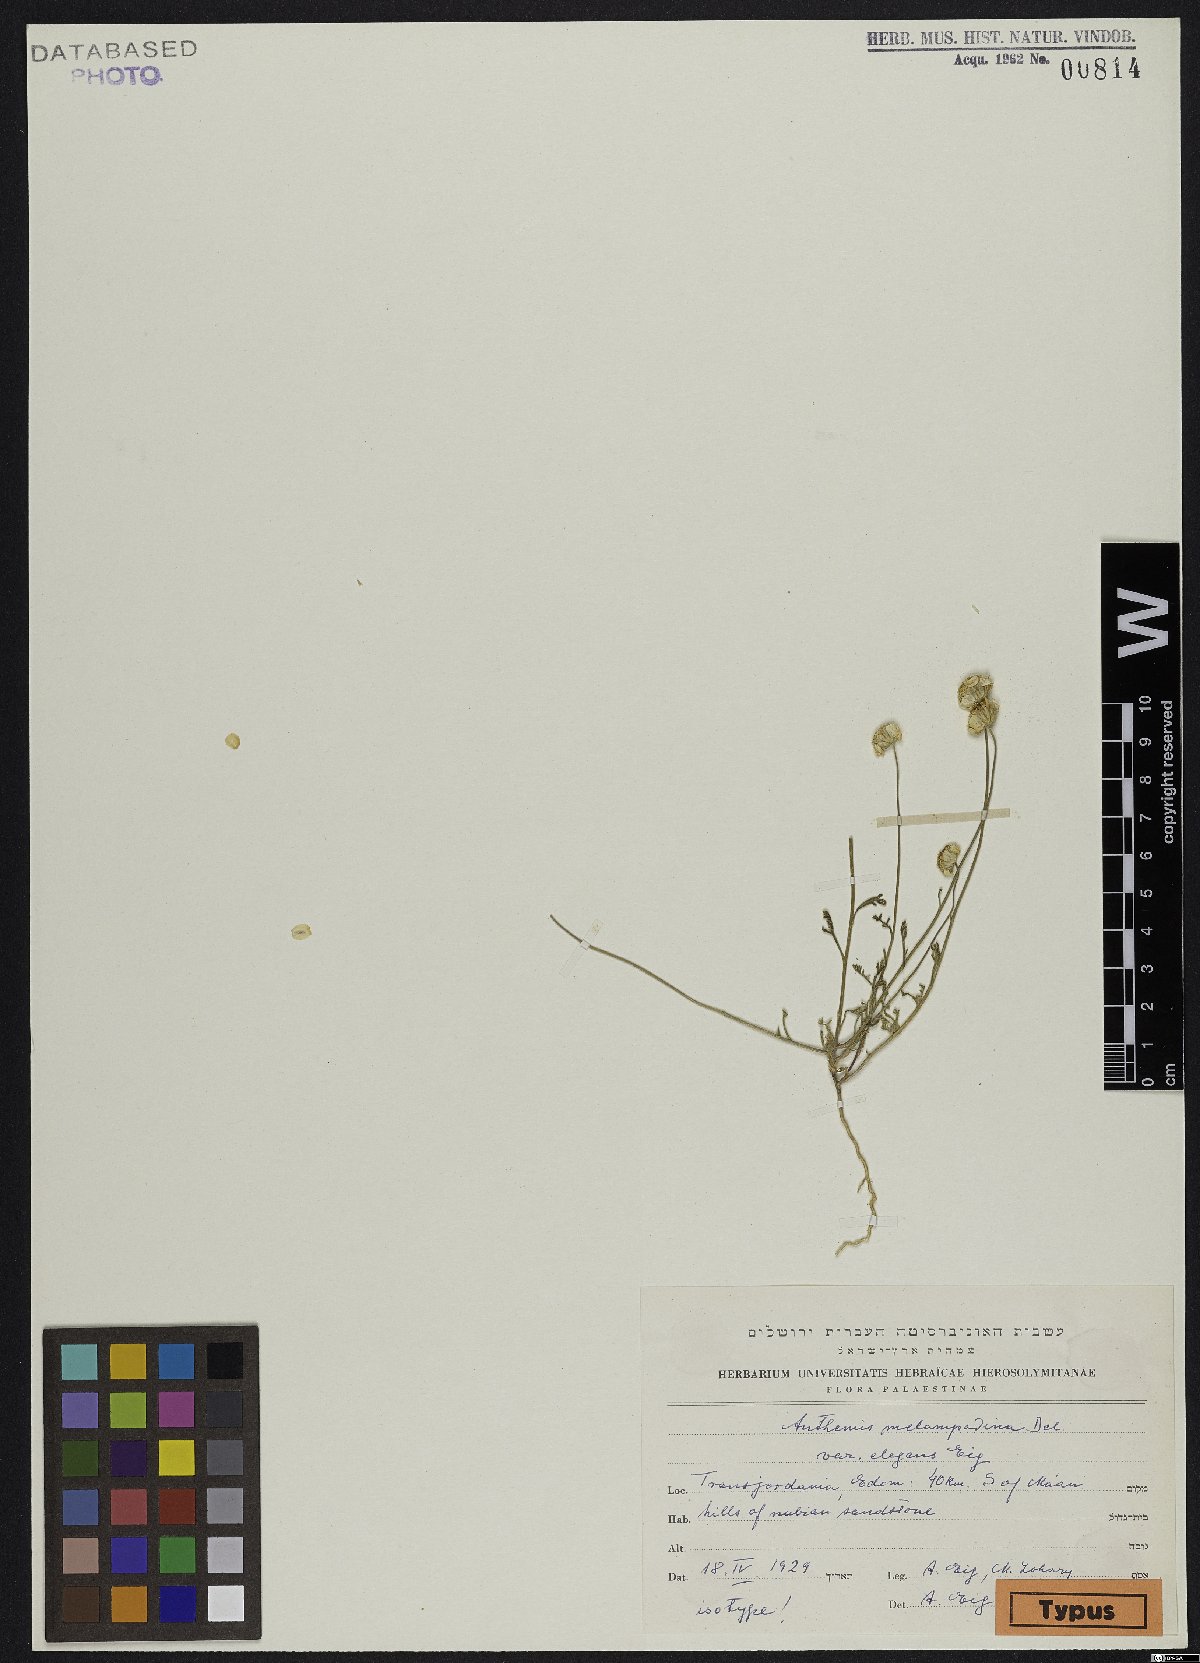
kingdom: Plantae
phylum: Tracheophyta
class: Magnoliopsida
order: Asterales
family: Asteraceae
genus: Anthemis
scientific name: Anthemis melampodina
